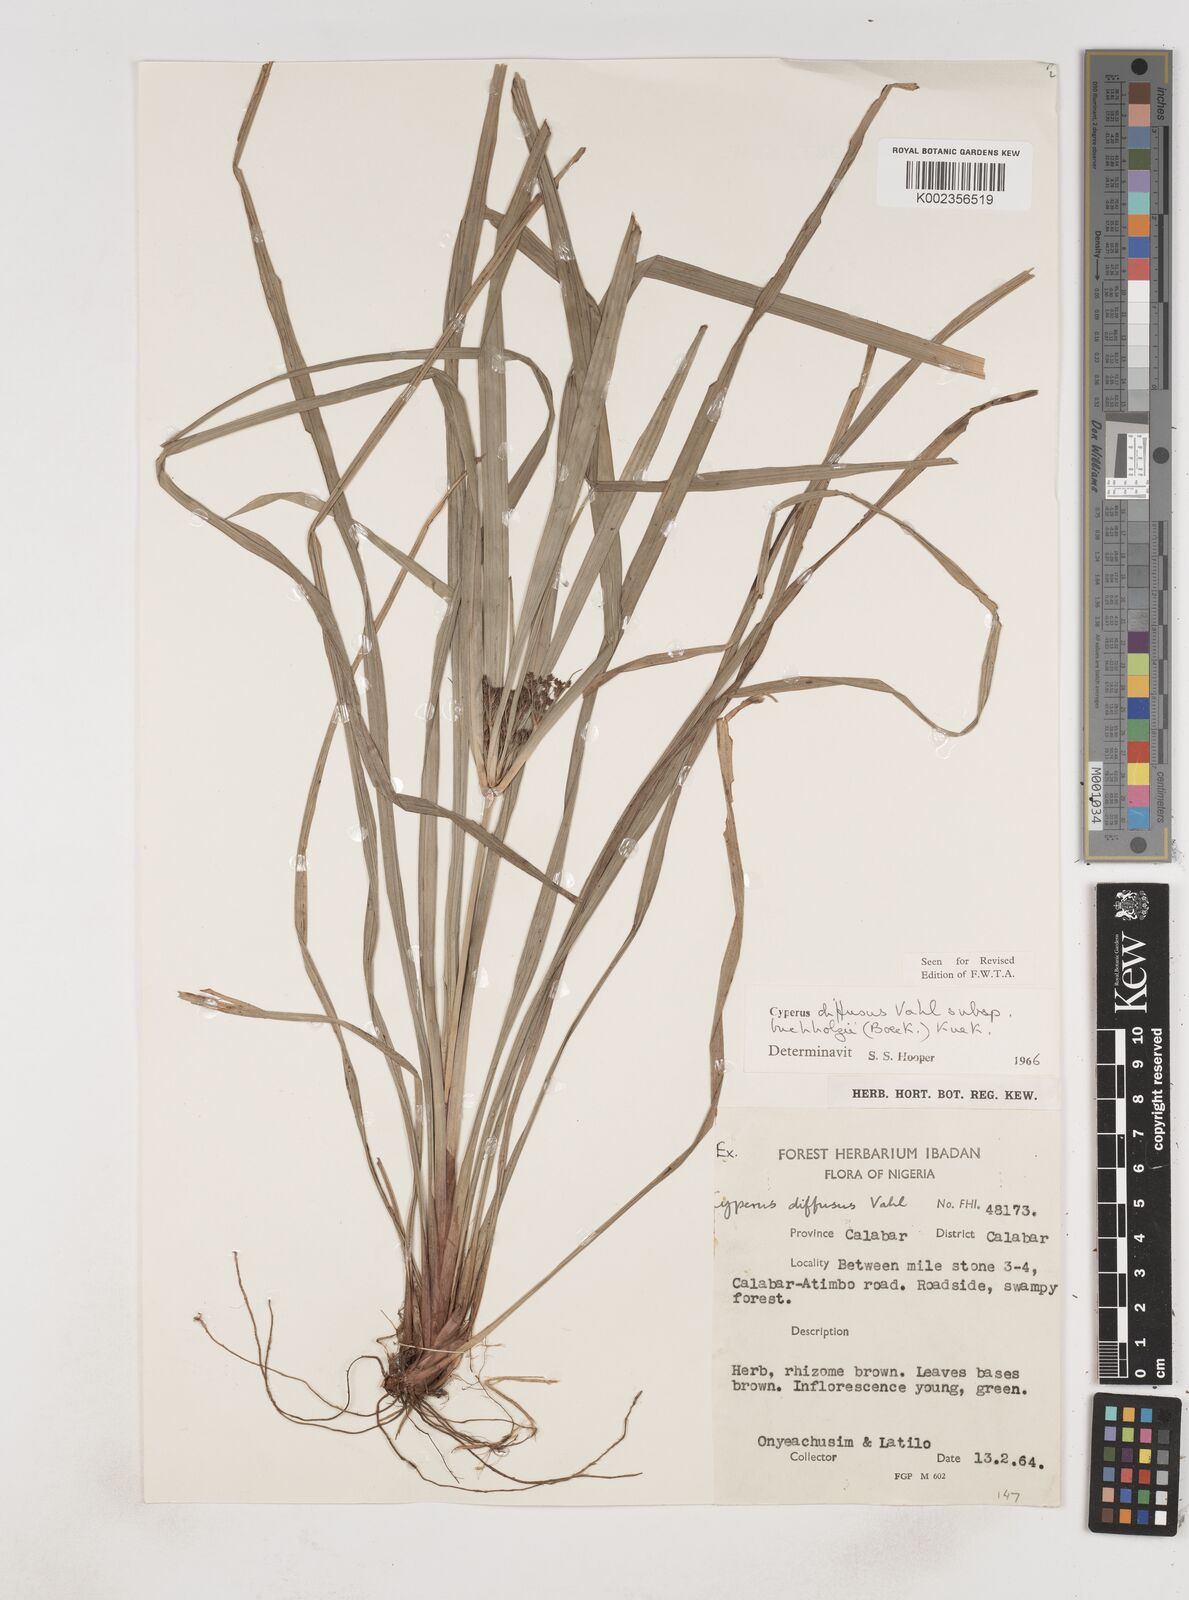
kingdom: Plantae
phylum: Tracheophyta
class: Liliopsida
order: Poales
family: Cyperaceae
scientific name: Cyperaceae
